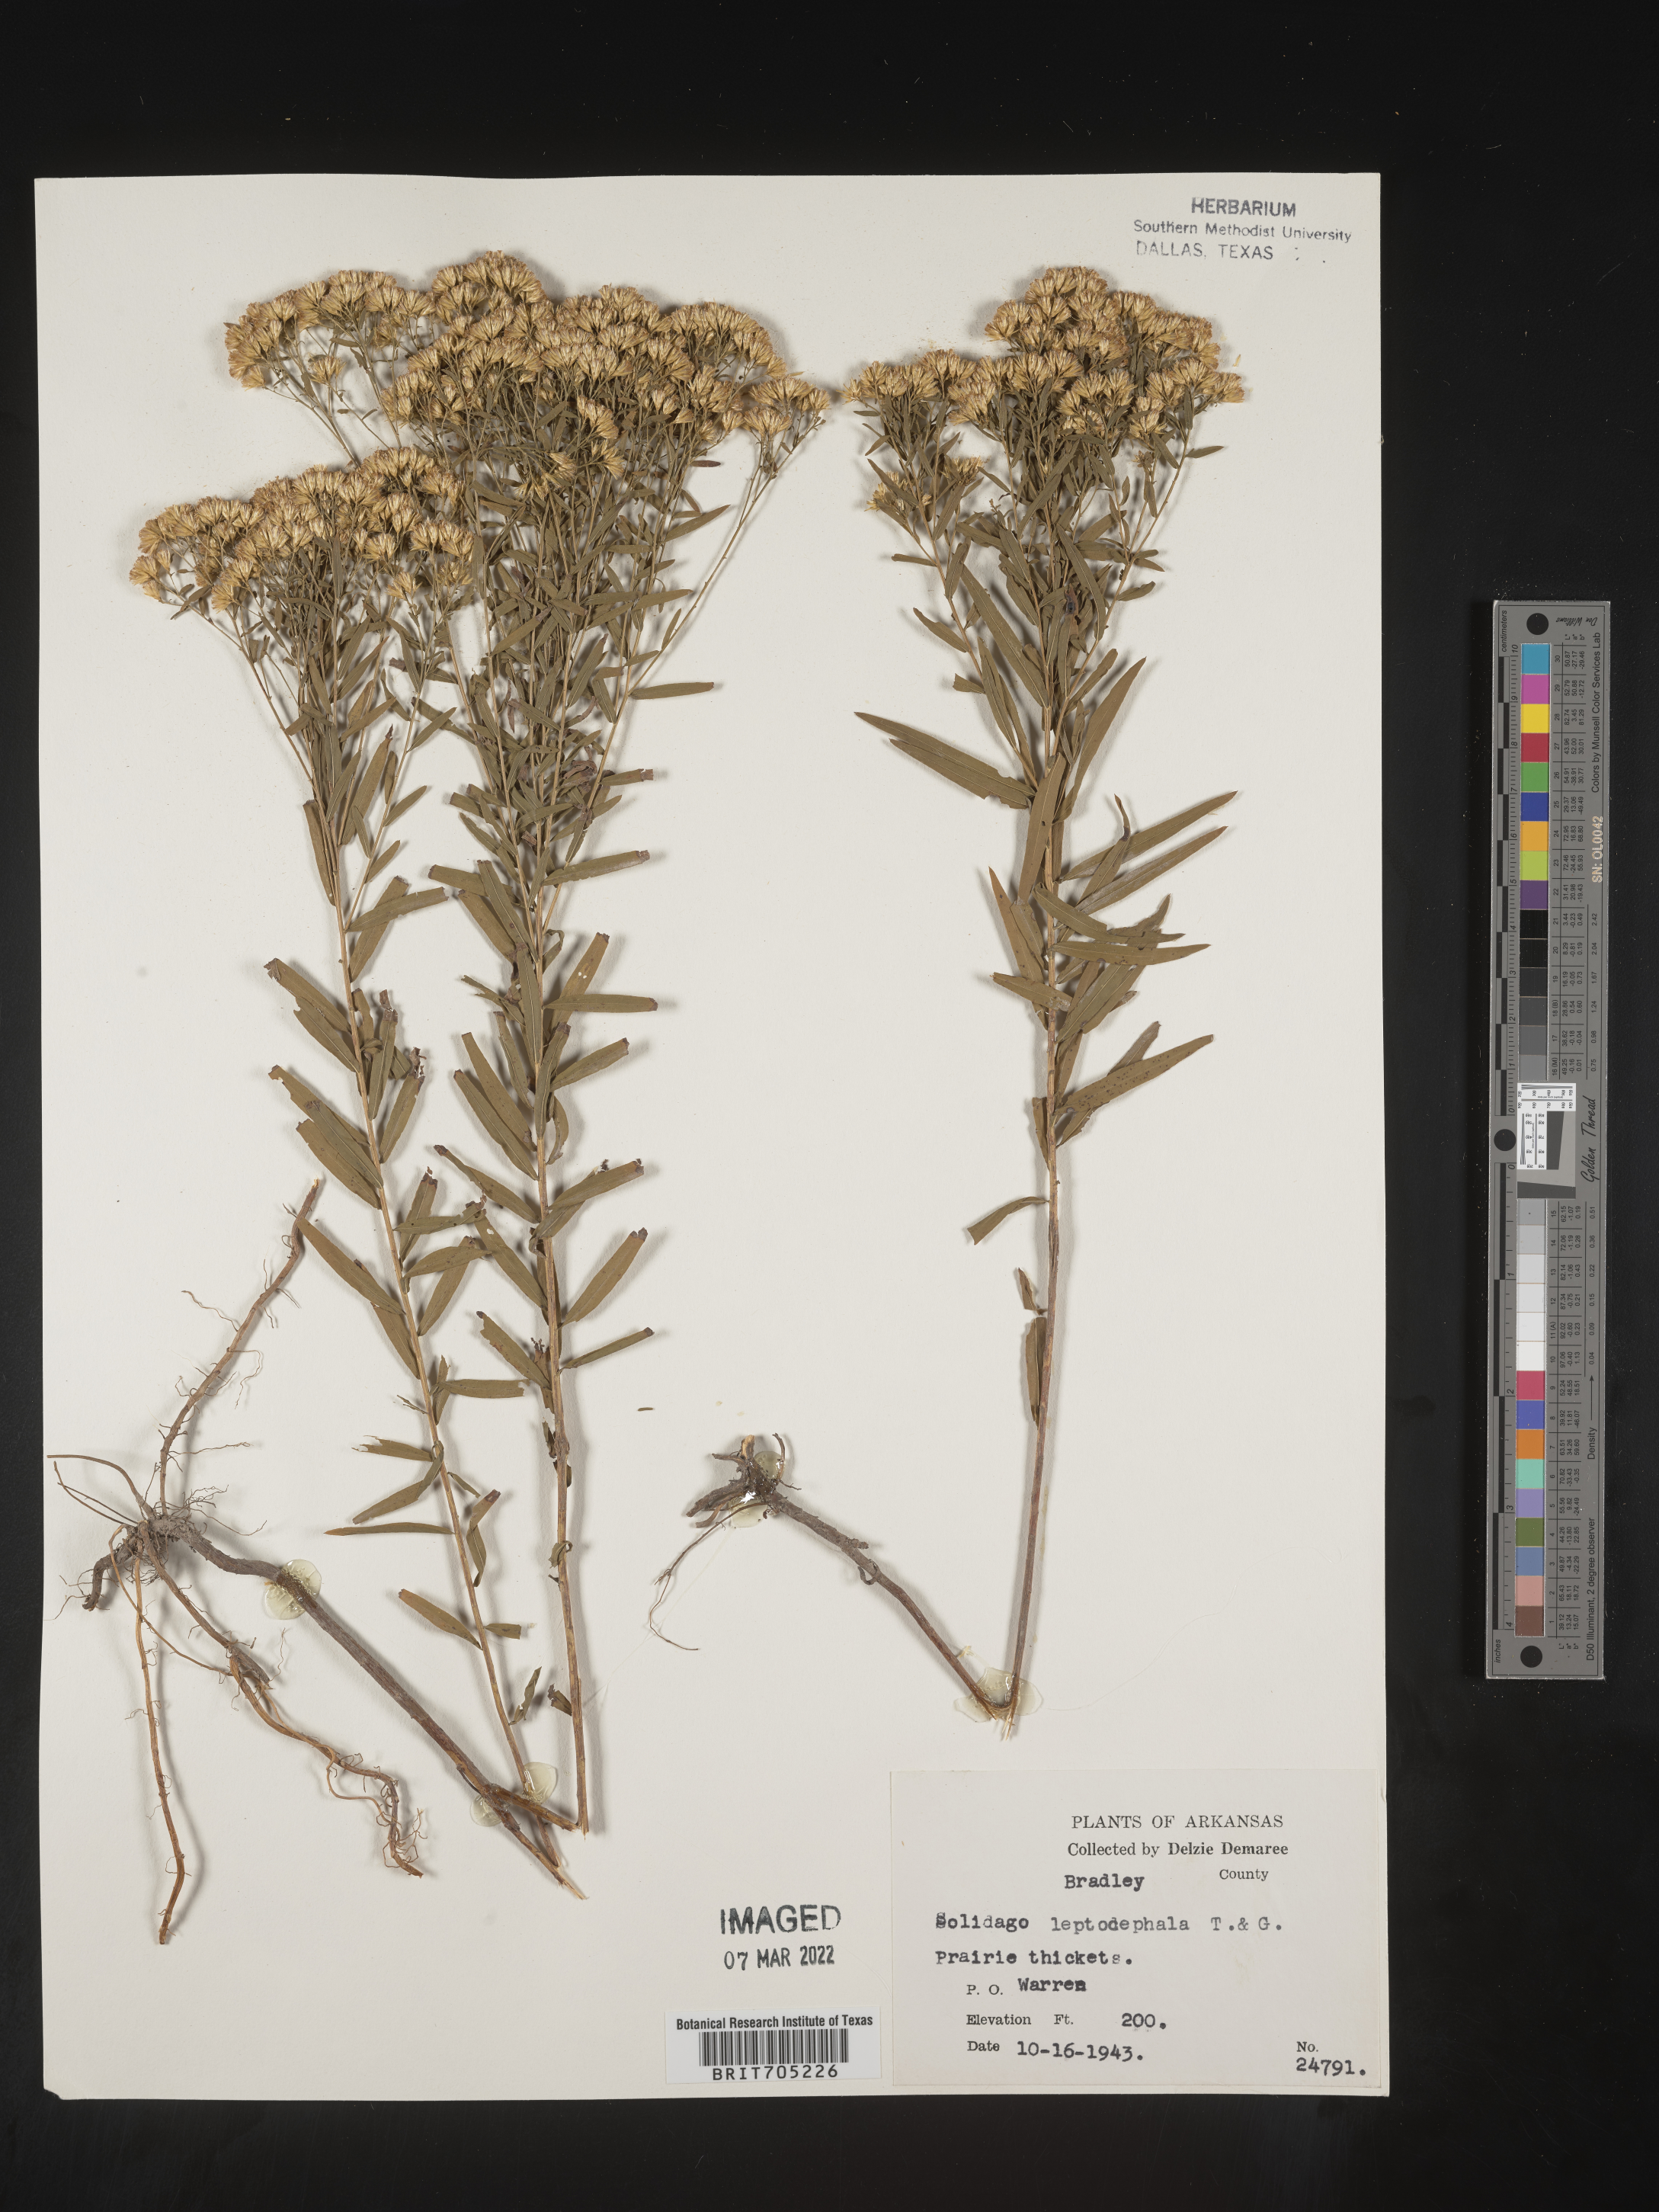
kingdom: Plantae
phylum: Tracheophyta
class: Magnoliopsida
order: Asterales
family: Asteraceae
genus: Euthamia
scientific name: Euthamia leptocephala
